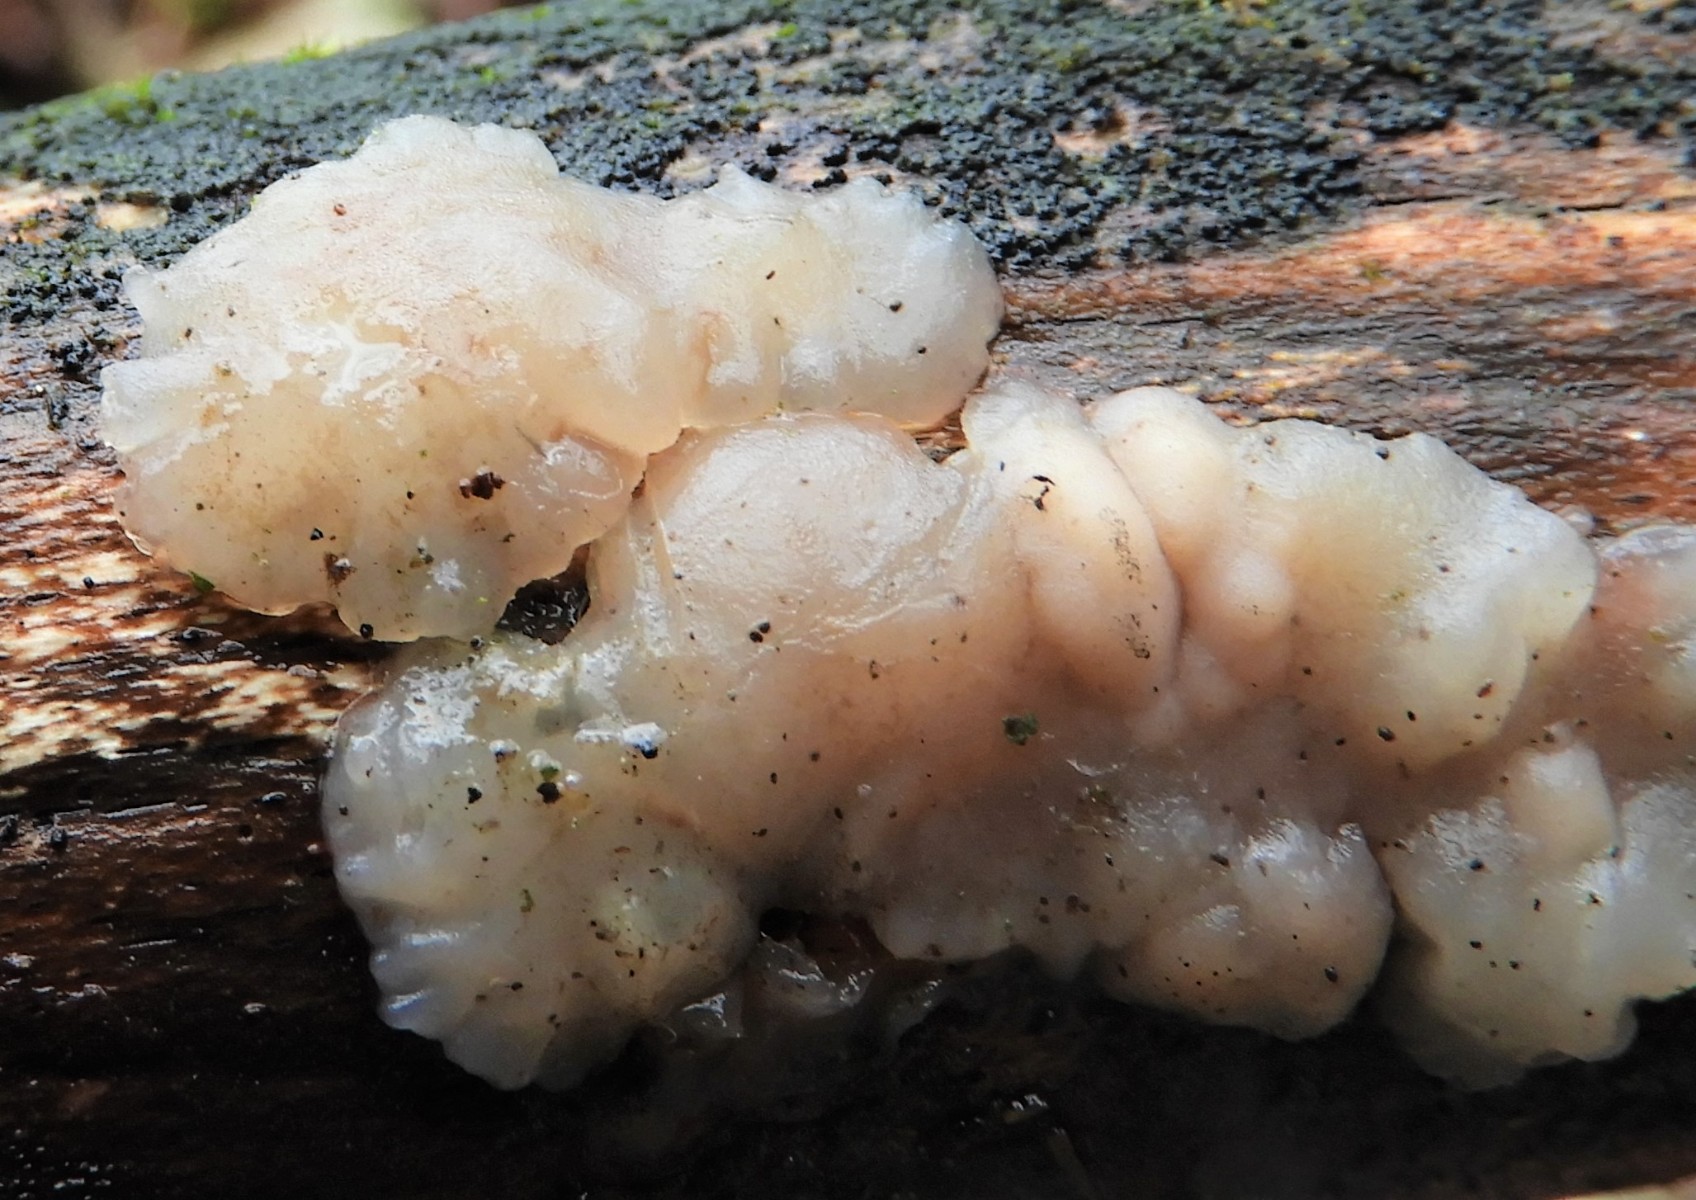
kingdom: Fungi
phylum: Basidiomycota
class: Agaricomycetes
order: Auriculariales
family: Auriculariaceae
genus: Exidia
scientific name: Exidia thuretiana
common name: hvidlig bævretop
